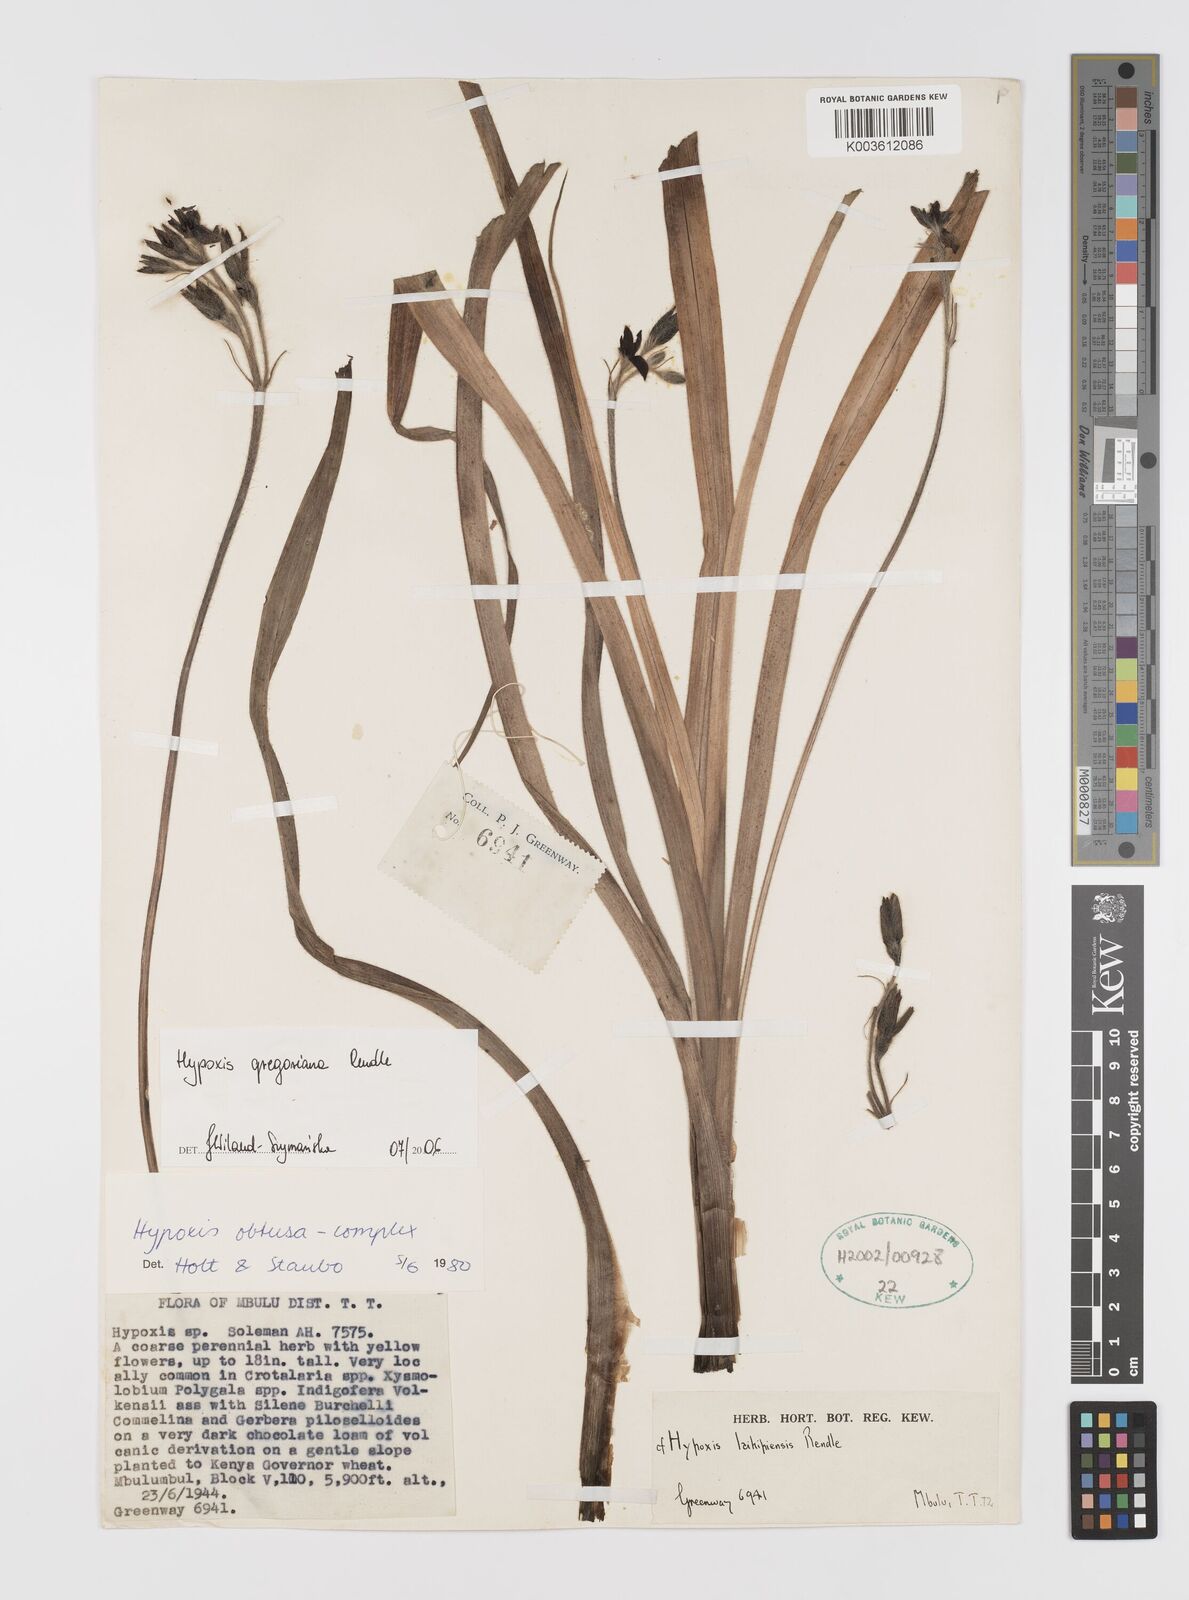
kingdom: Plantae
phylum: Tracheophyta
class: Liliopsida
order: Asparagales
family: Hypoxidaceae
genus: Hypoxis
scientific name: Hypoxis gregoriana
